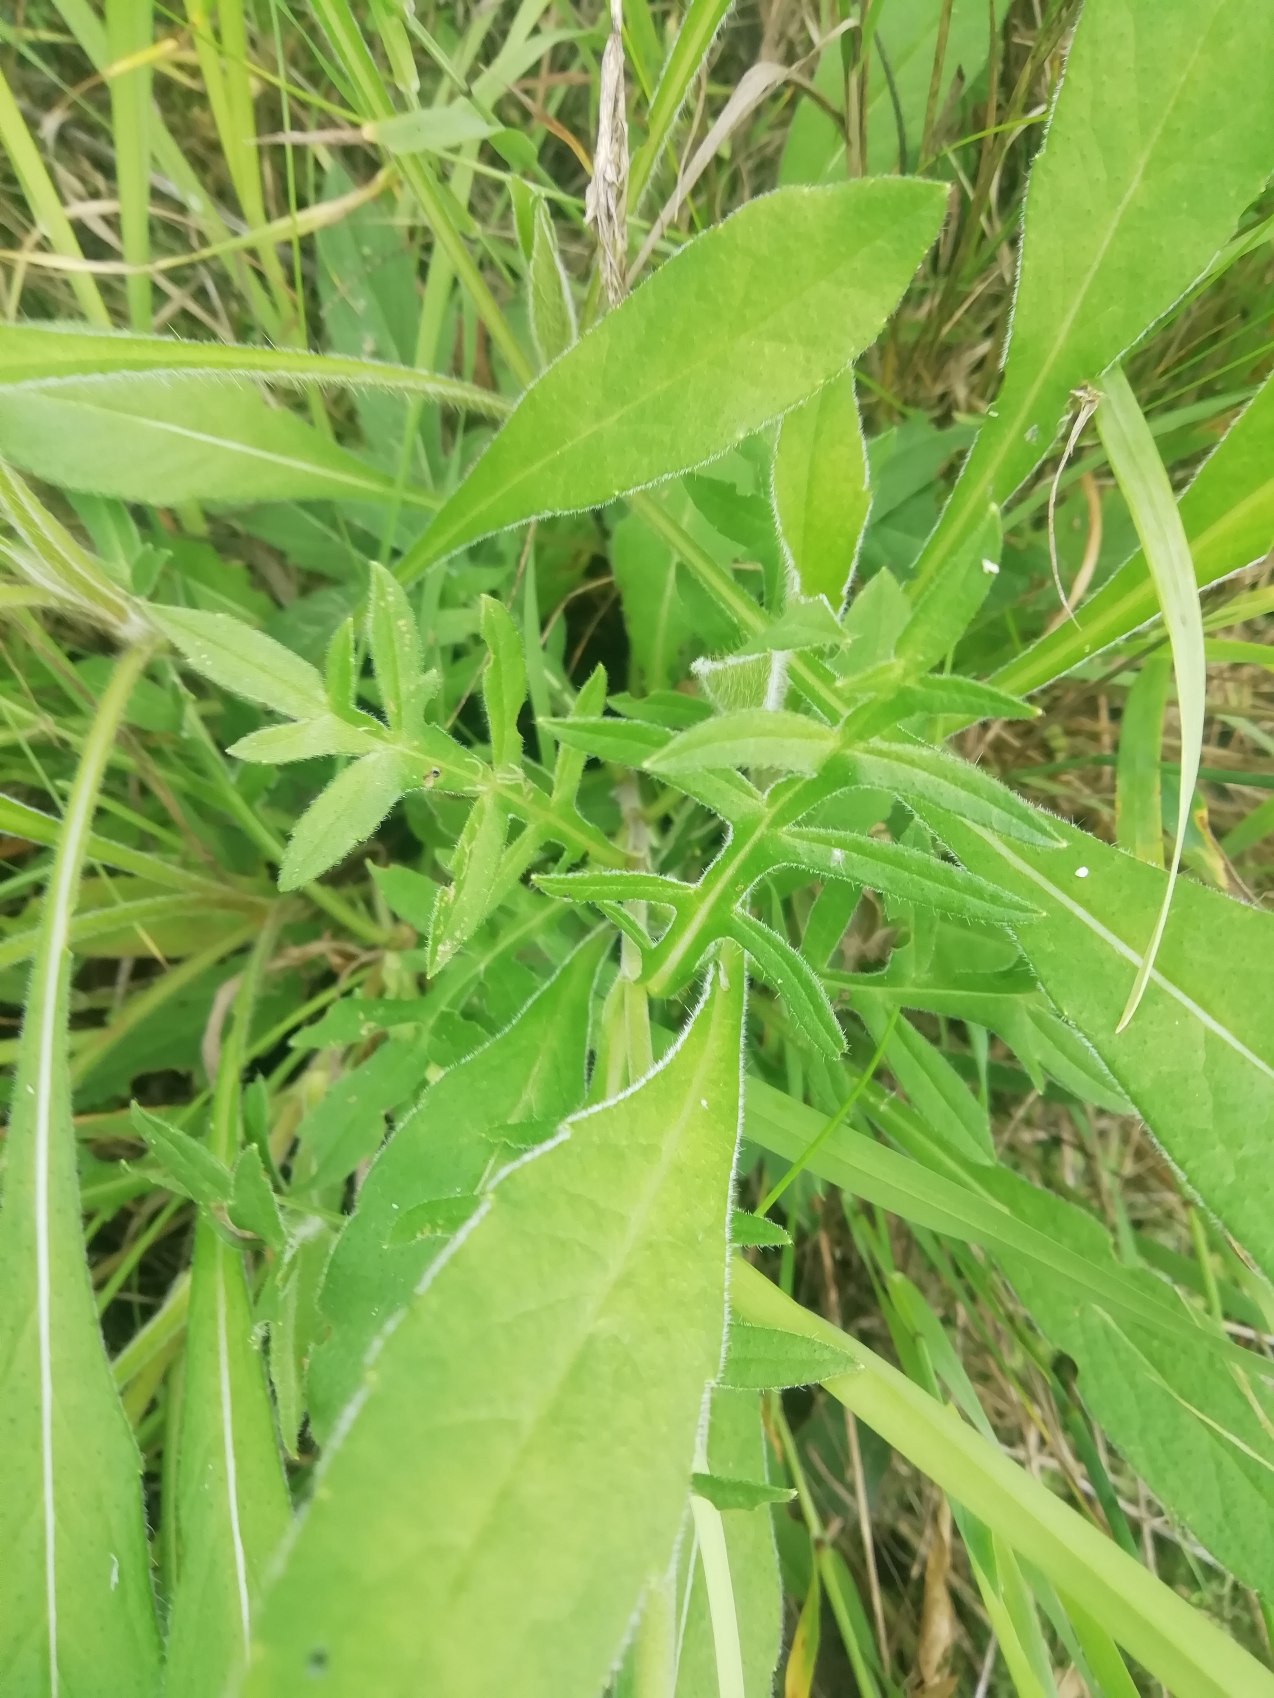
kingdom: Plantae
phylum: Tracheophyta
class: Magnoliopsida
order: Dipsacales
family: Caprifoliaceae
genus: Knautia
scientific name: Knautia arvensis
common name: Blåhat
